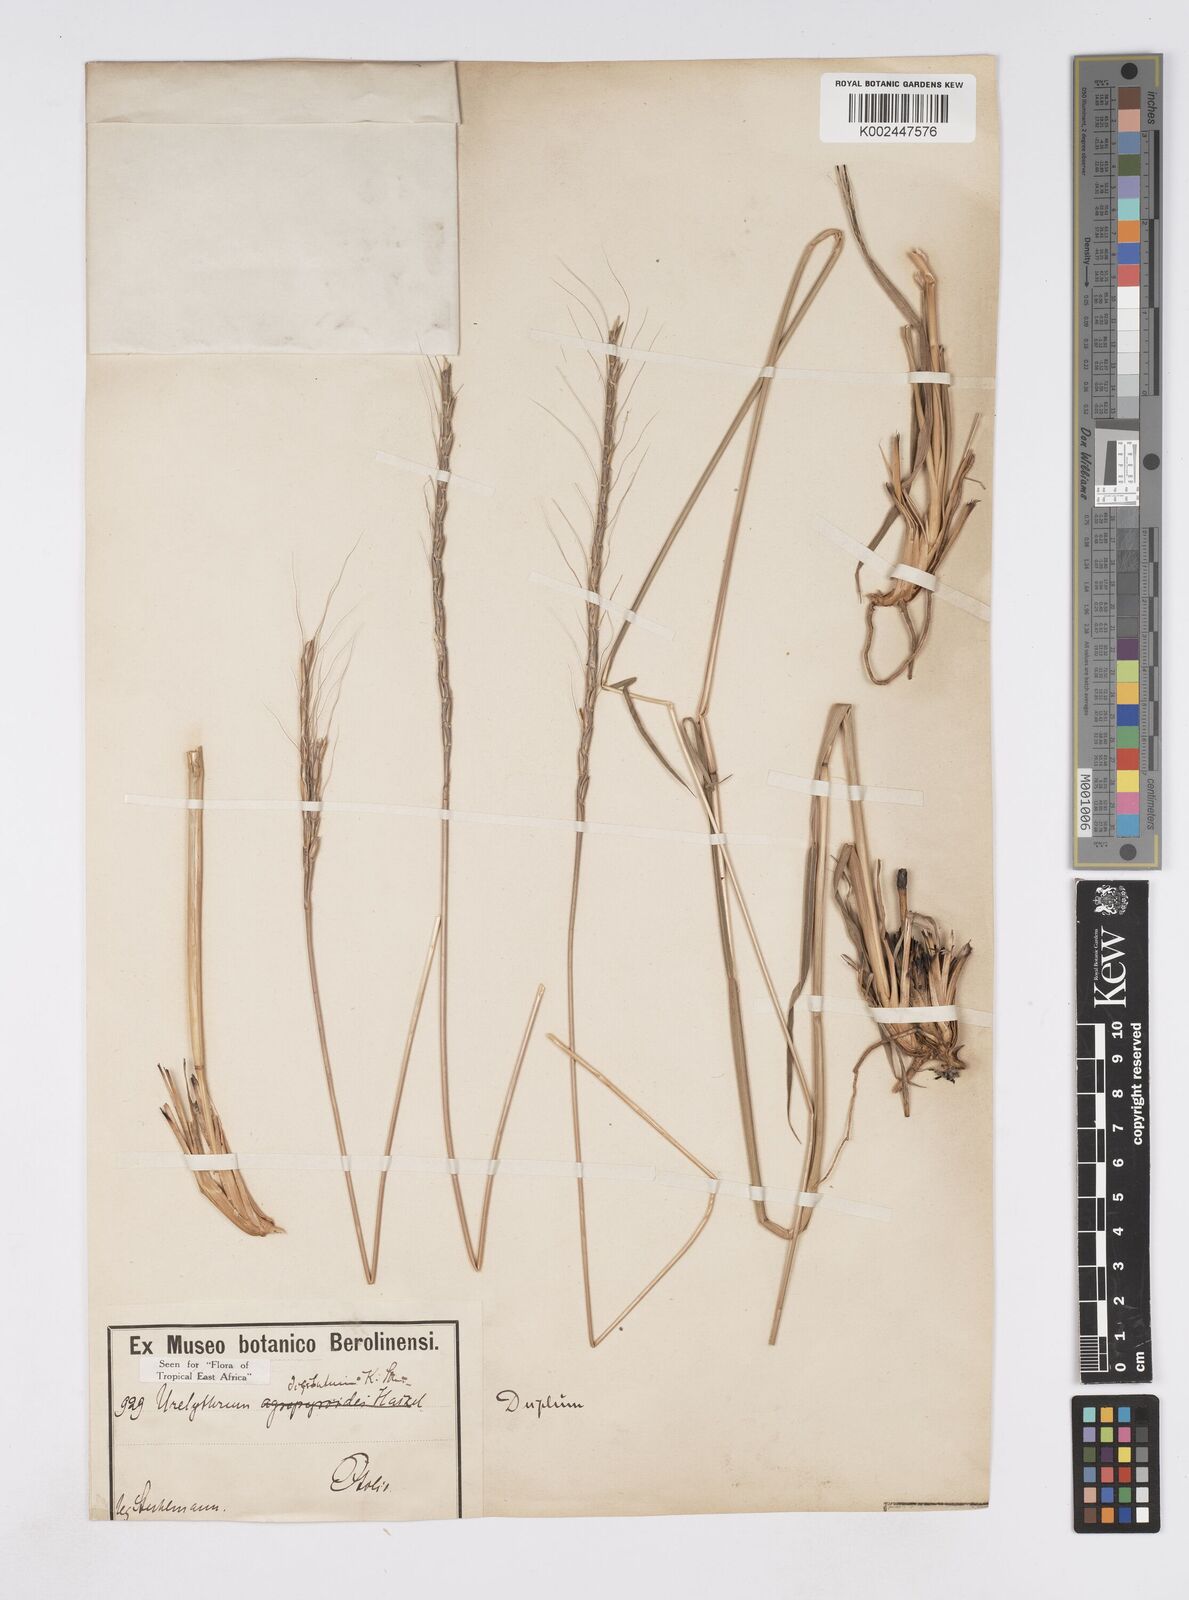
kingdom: Plantae
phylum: Tracheophyta
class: Liliopsida
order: Poales
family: Poaceae
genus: Urelytrum
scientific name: Urelytrum digitatum
